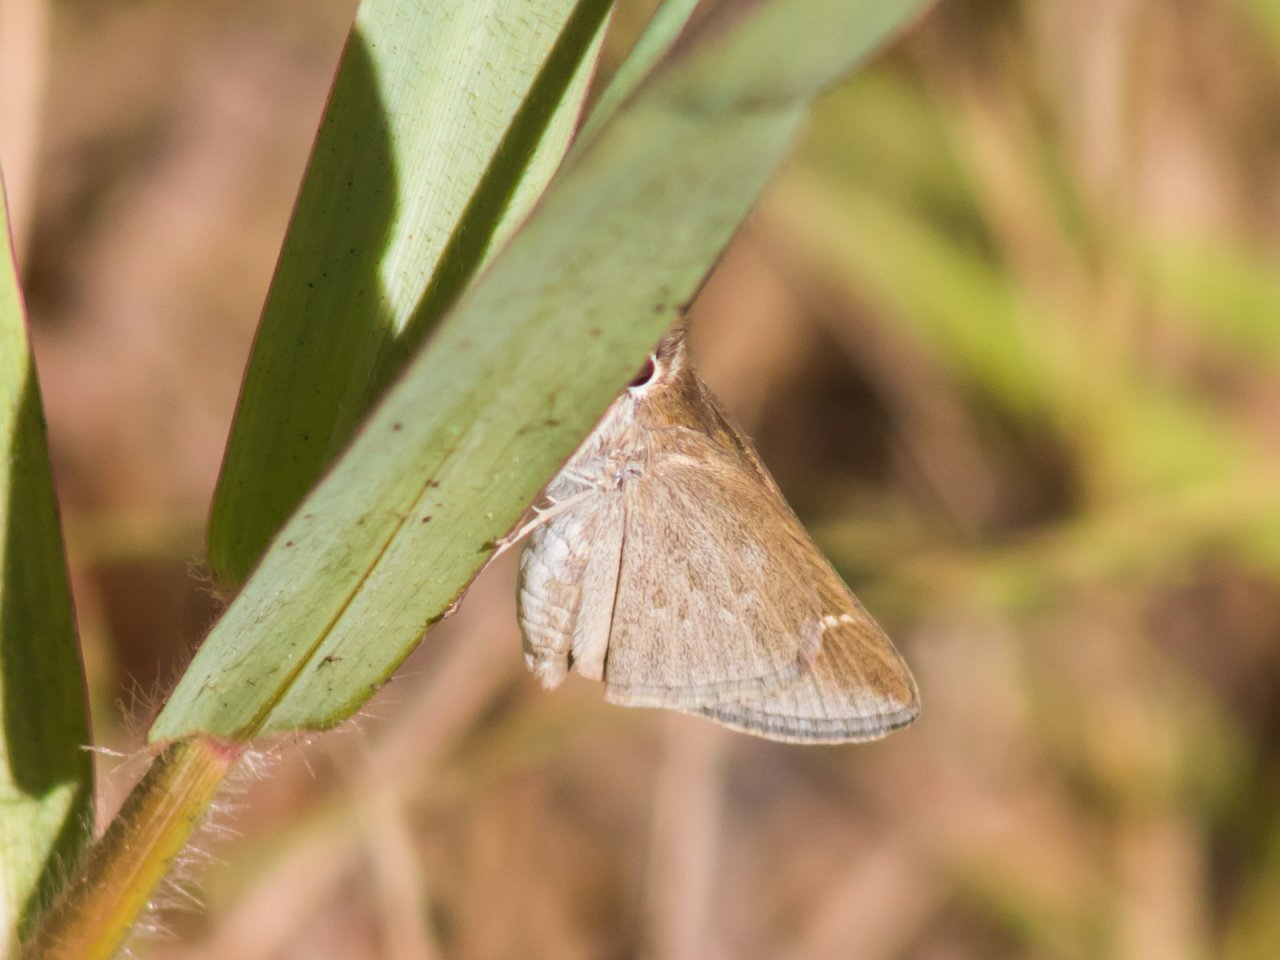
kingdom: Animalia
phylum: Arthropoda
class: Insecta
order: Lepidoptera
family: Hesperiidae
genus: Lerodea
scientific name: Lerodea eufala
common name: Eufala Skipper
